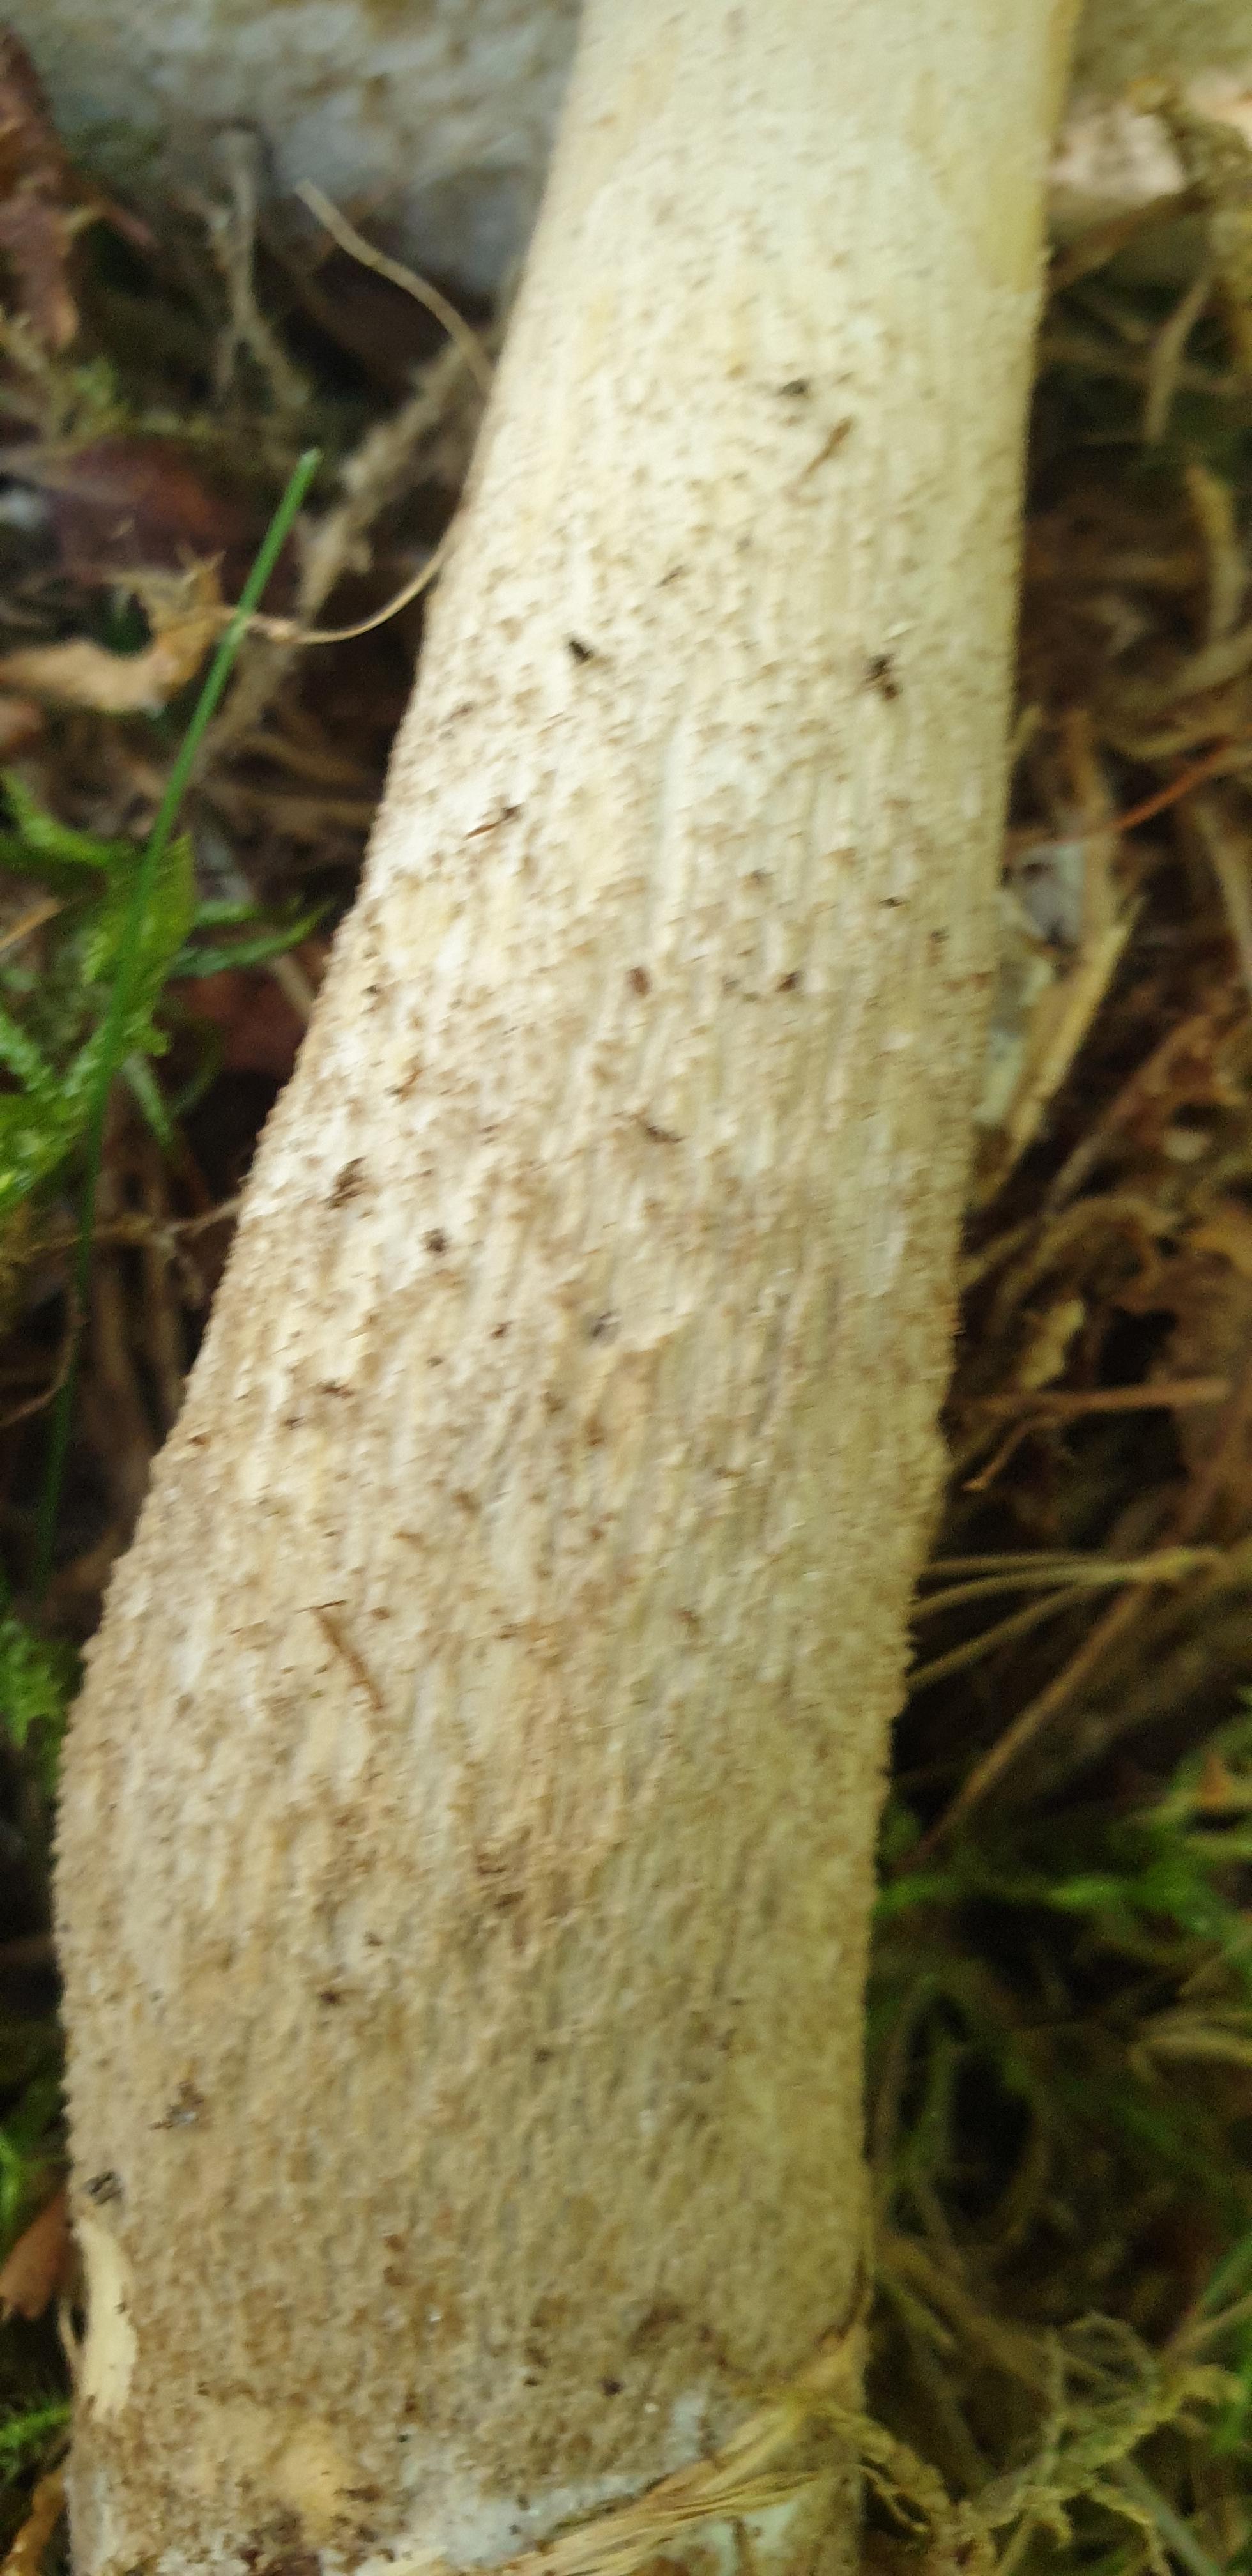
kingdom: Fungi
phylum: Basidiomycota
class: Agaricomycetes
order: Boletales
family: Boletaceae
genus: Leccinum
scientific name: Leccinum
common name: skælrørhat
